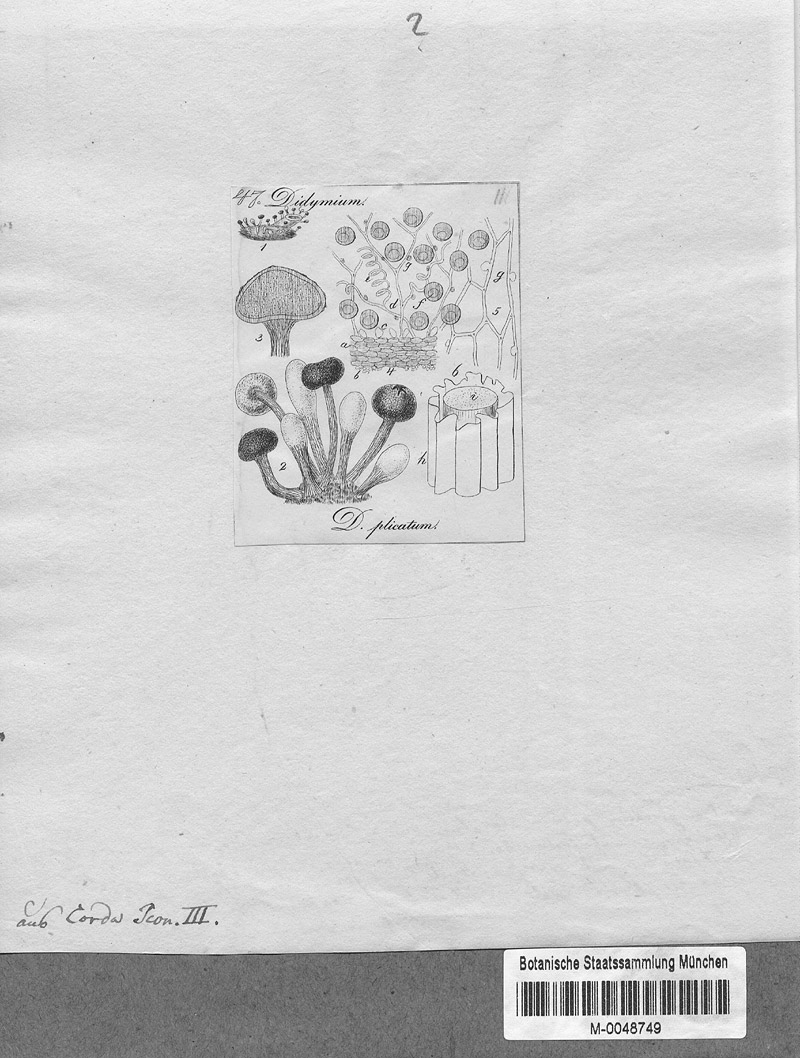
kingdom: Protozoa
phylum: Mycetozoa
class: Myxomycetes
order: Physarales
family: Physaraceae
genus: Didymium
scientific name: Didymium
